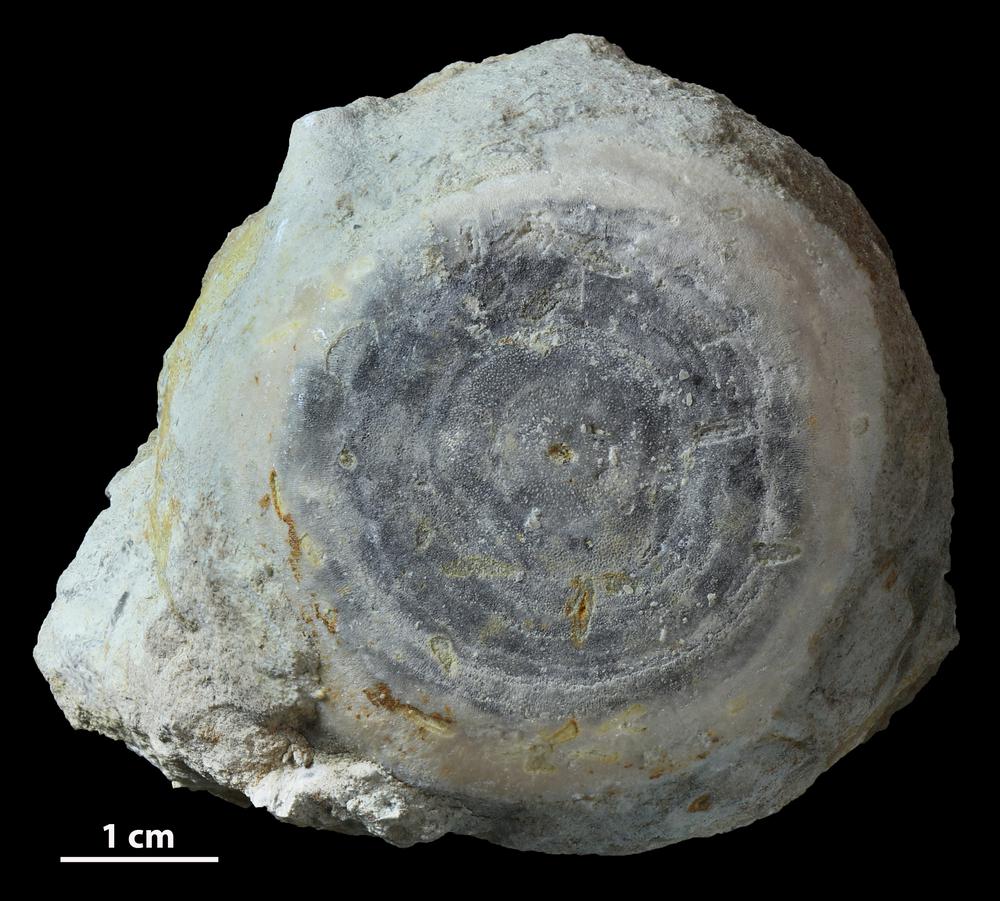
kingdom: Animalia
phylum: Bryozoa
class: Stenolaemata
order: Trepostomatida
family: Diplotrypidae
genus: Diplotrypa
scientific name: Diplotrypa bicornis
